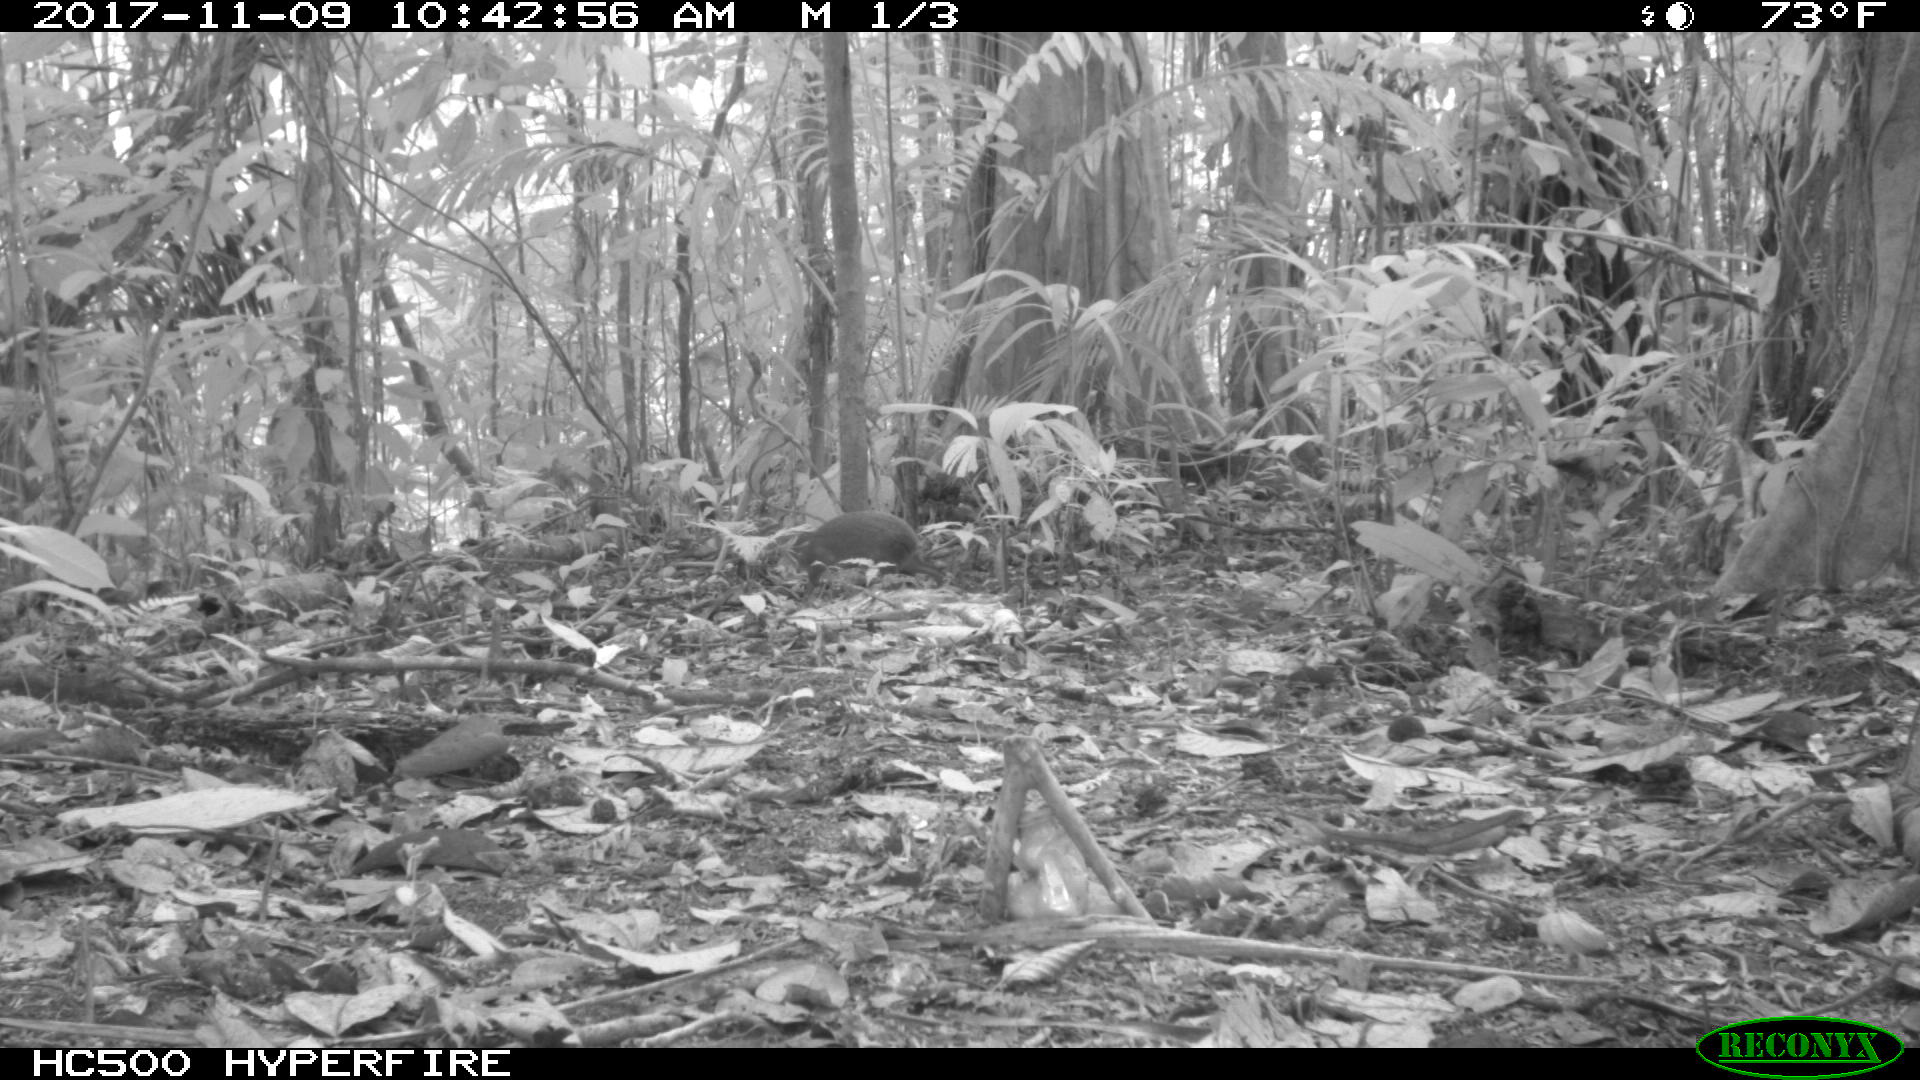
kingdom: Animalia
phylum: Chordata
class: Mammalia
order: Rodentia
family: Dasyproctidae
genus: Dasyprocta
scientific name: Dasyprocta punctata
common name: Central american agouti
